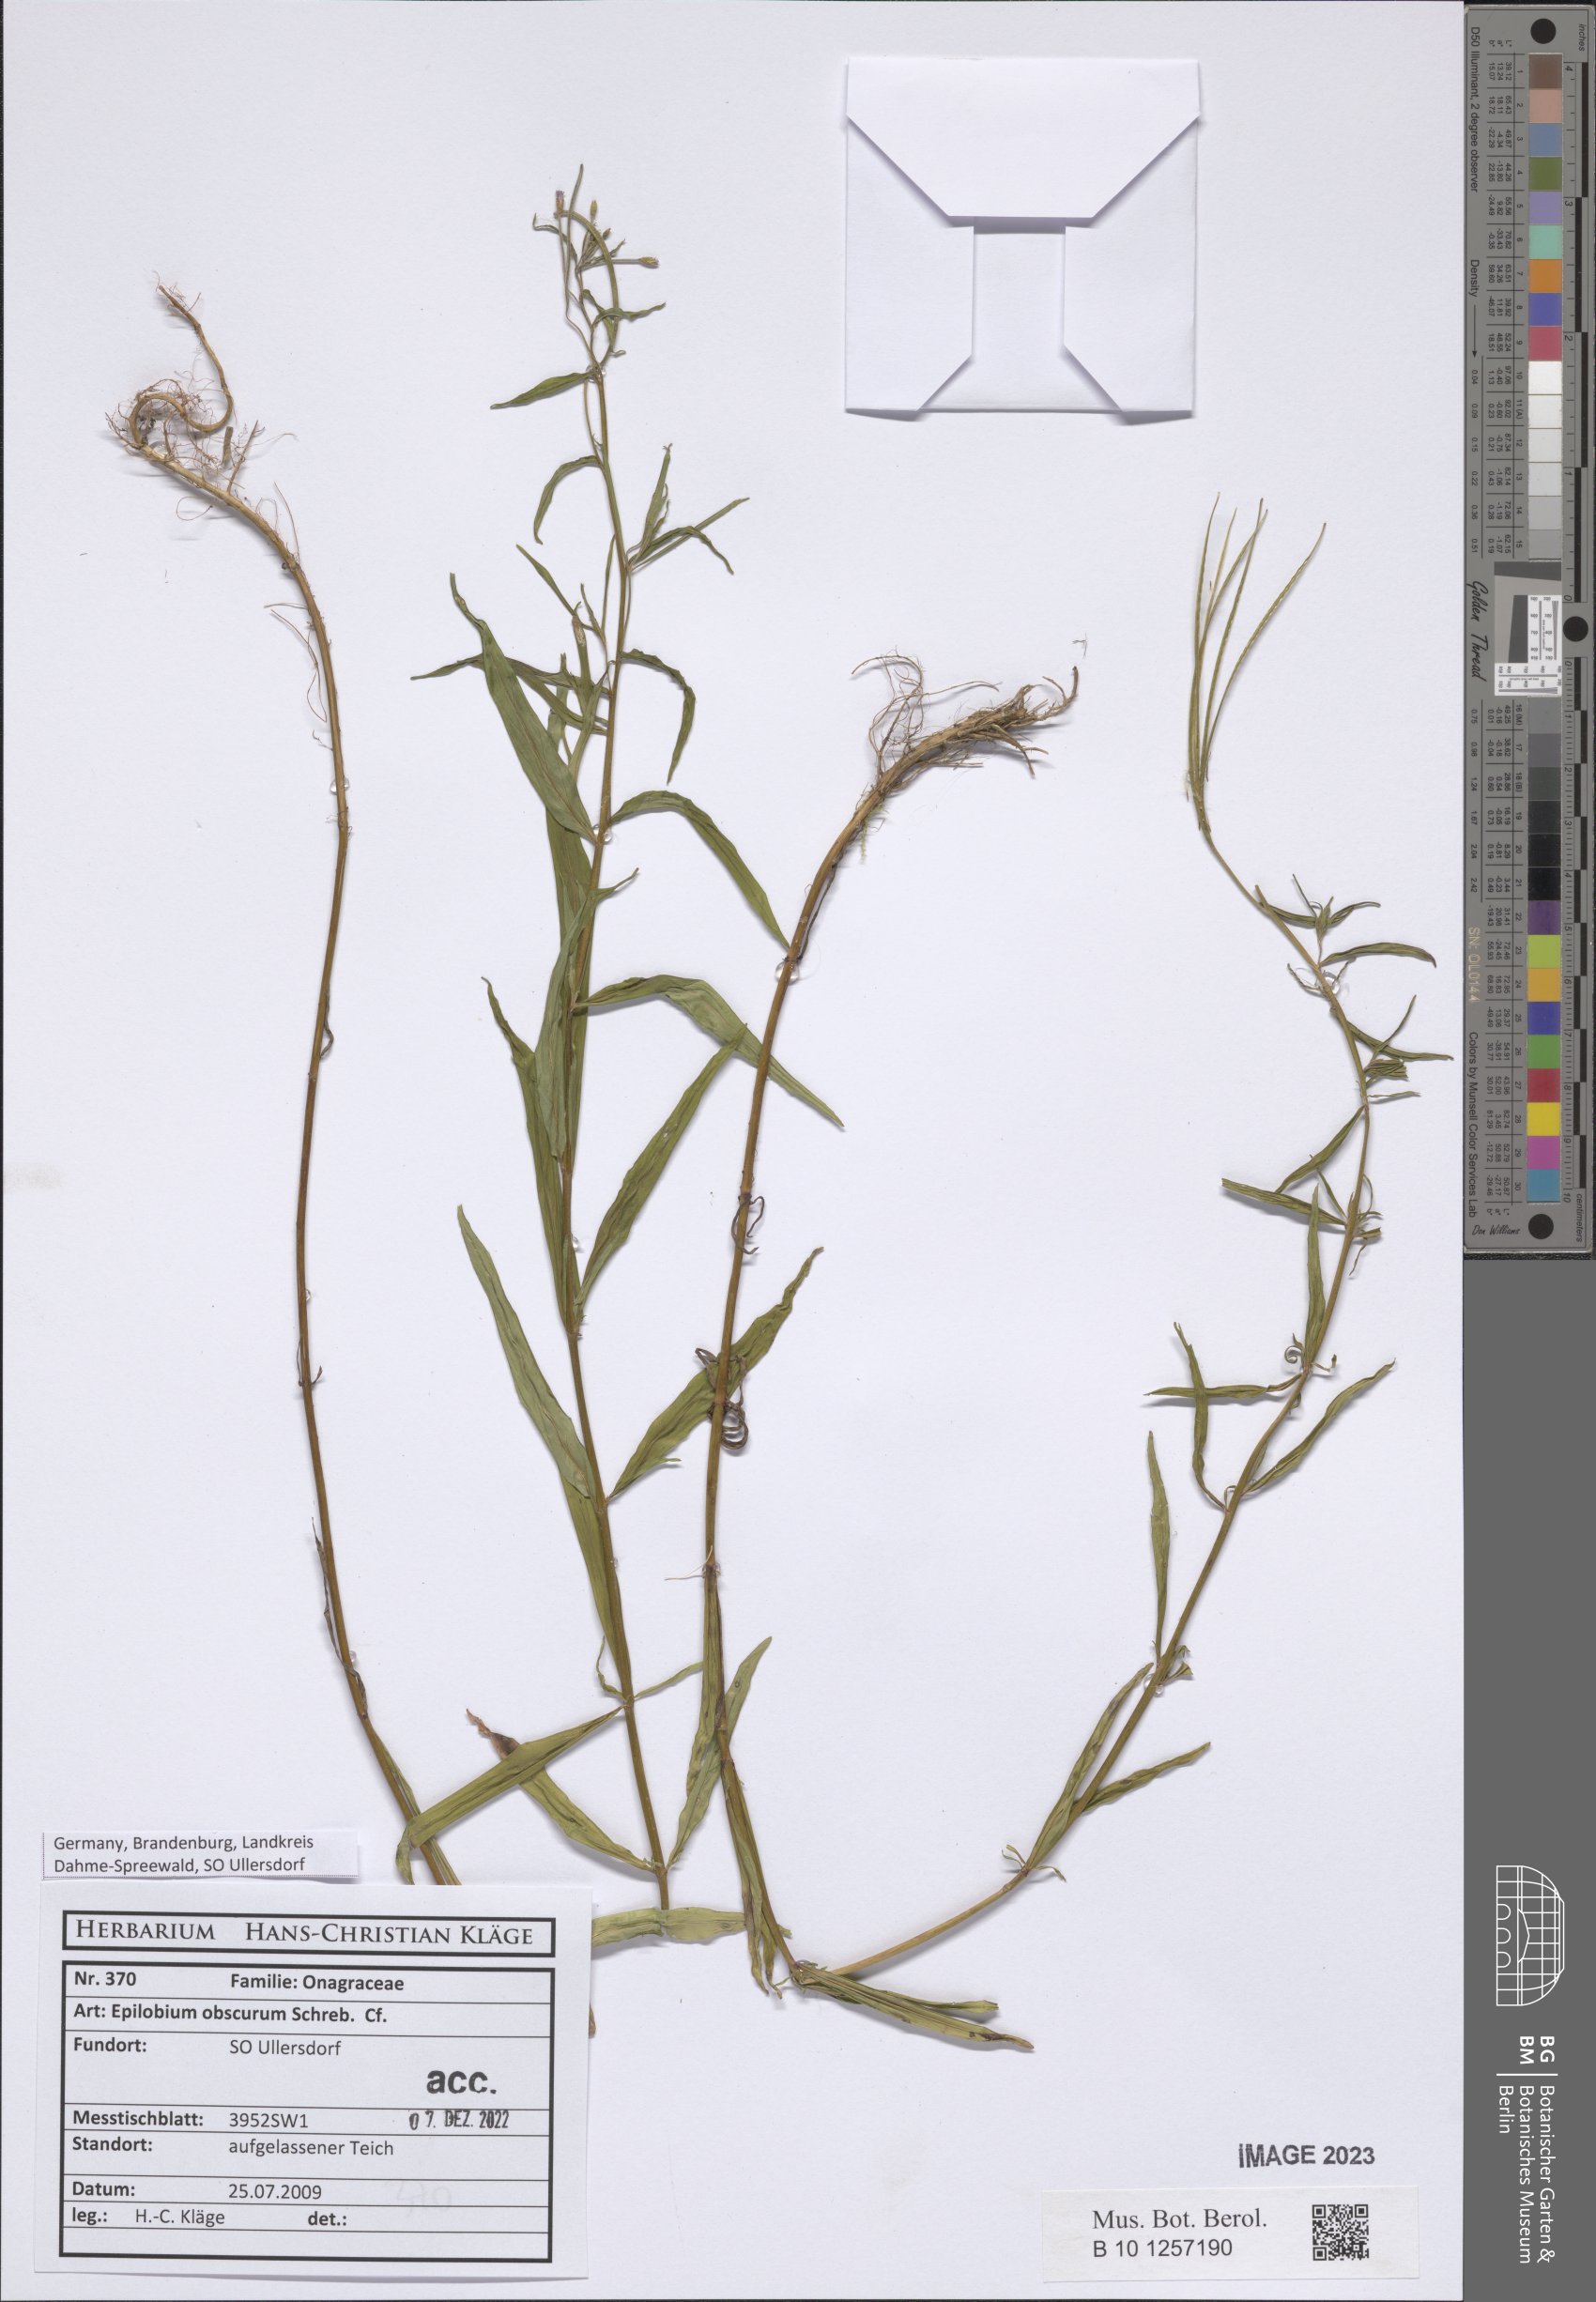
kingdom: Plantae
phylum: Tracheophyta
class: Magnoliopsida
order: Myrtales
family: Onagraceae
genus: Epilobium
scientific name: Epilobium obscurum
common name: Short-fruited willowherb
